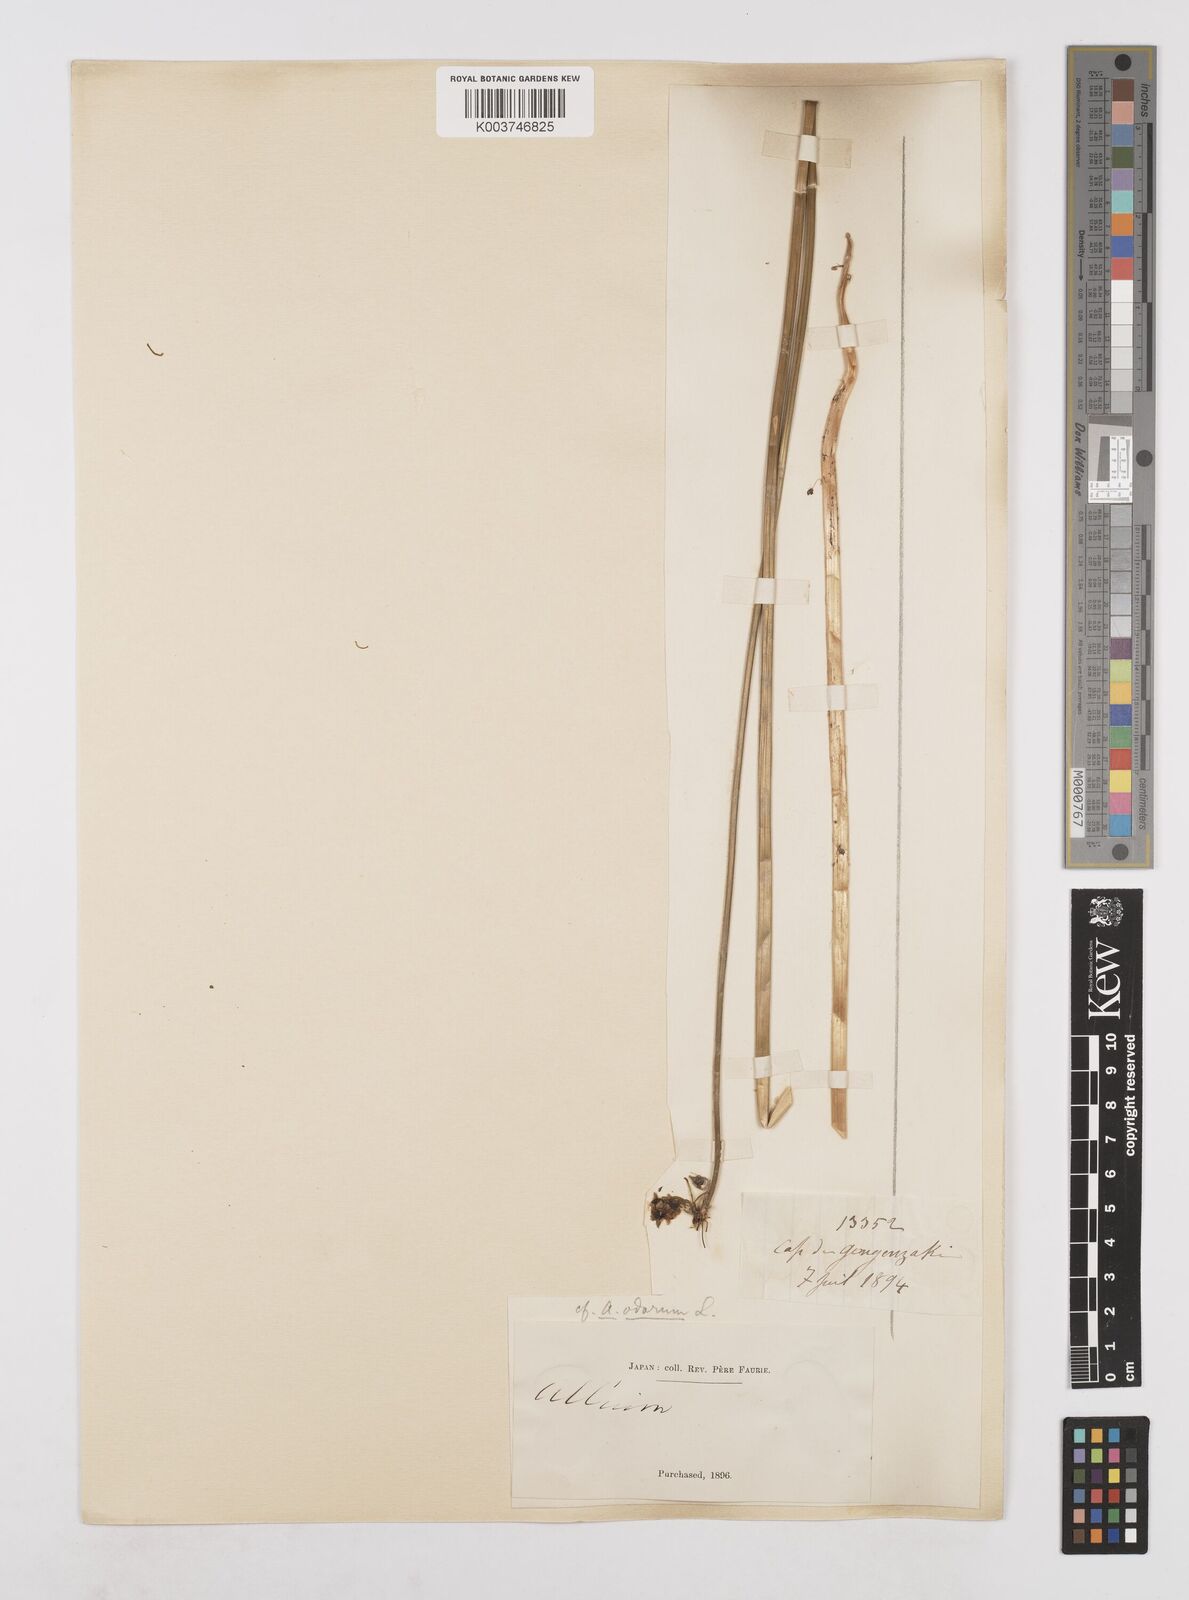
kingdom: Plantae
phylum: Tracheophyta
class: Liliopsida
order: Asparagales
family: Amaryllidaceae
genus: Allium
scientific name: Allium ramosum
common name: Fragrant garlic
